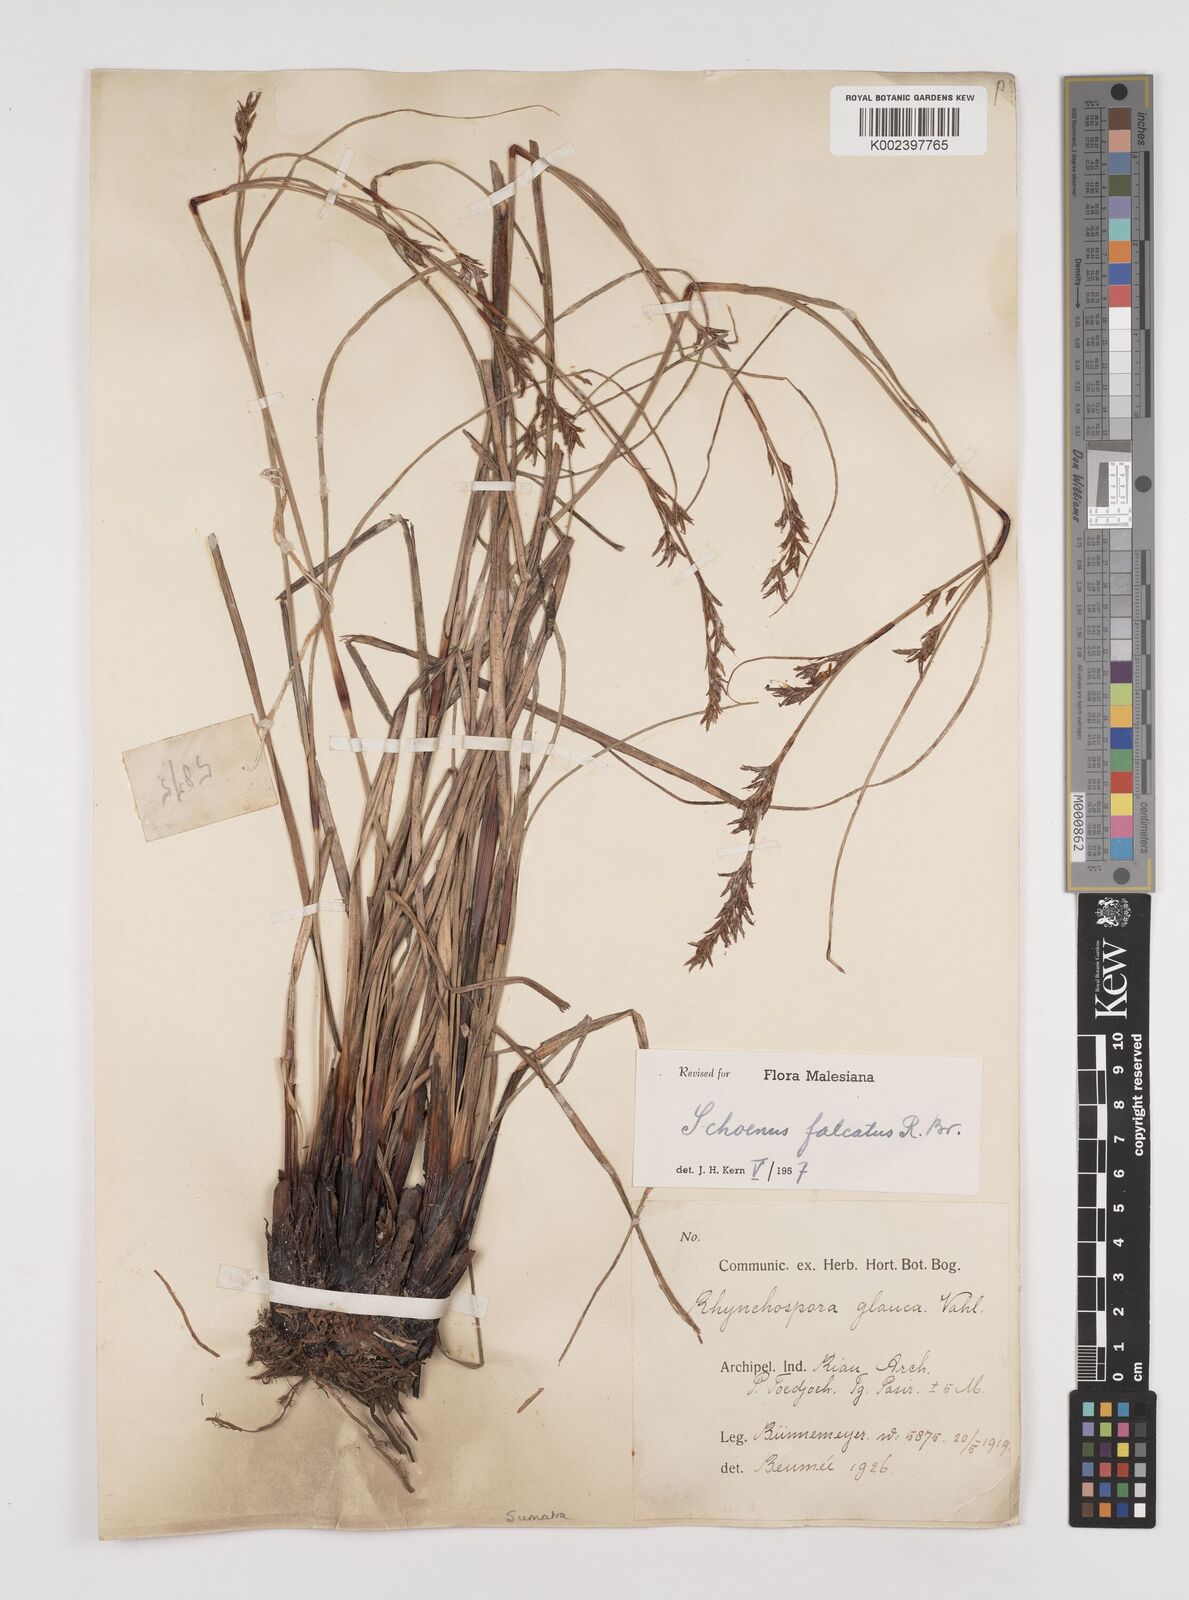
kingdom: Plantae
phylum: Tracheophyta
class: Liliopsida
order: Poales
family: Cyperaceae
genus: Schoenus
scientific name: Schoenus falcatus
